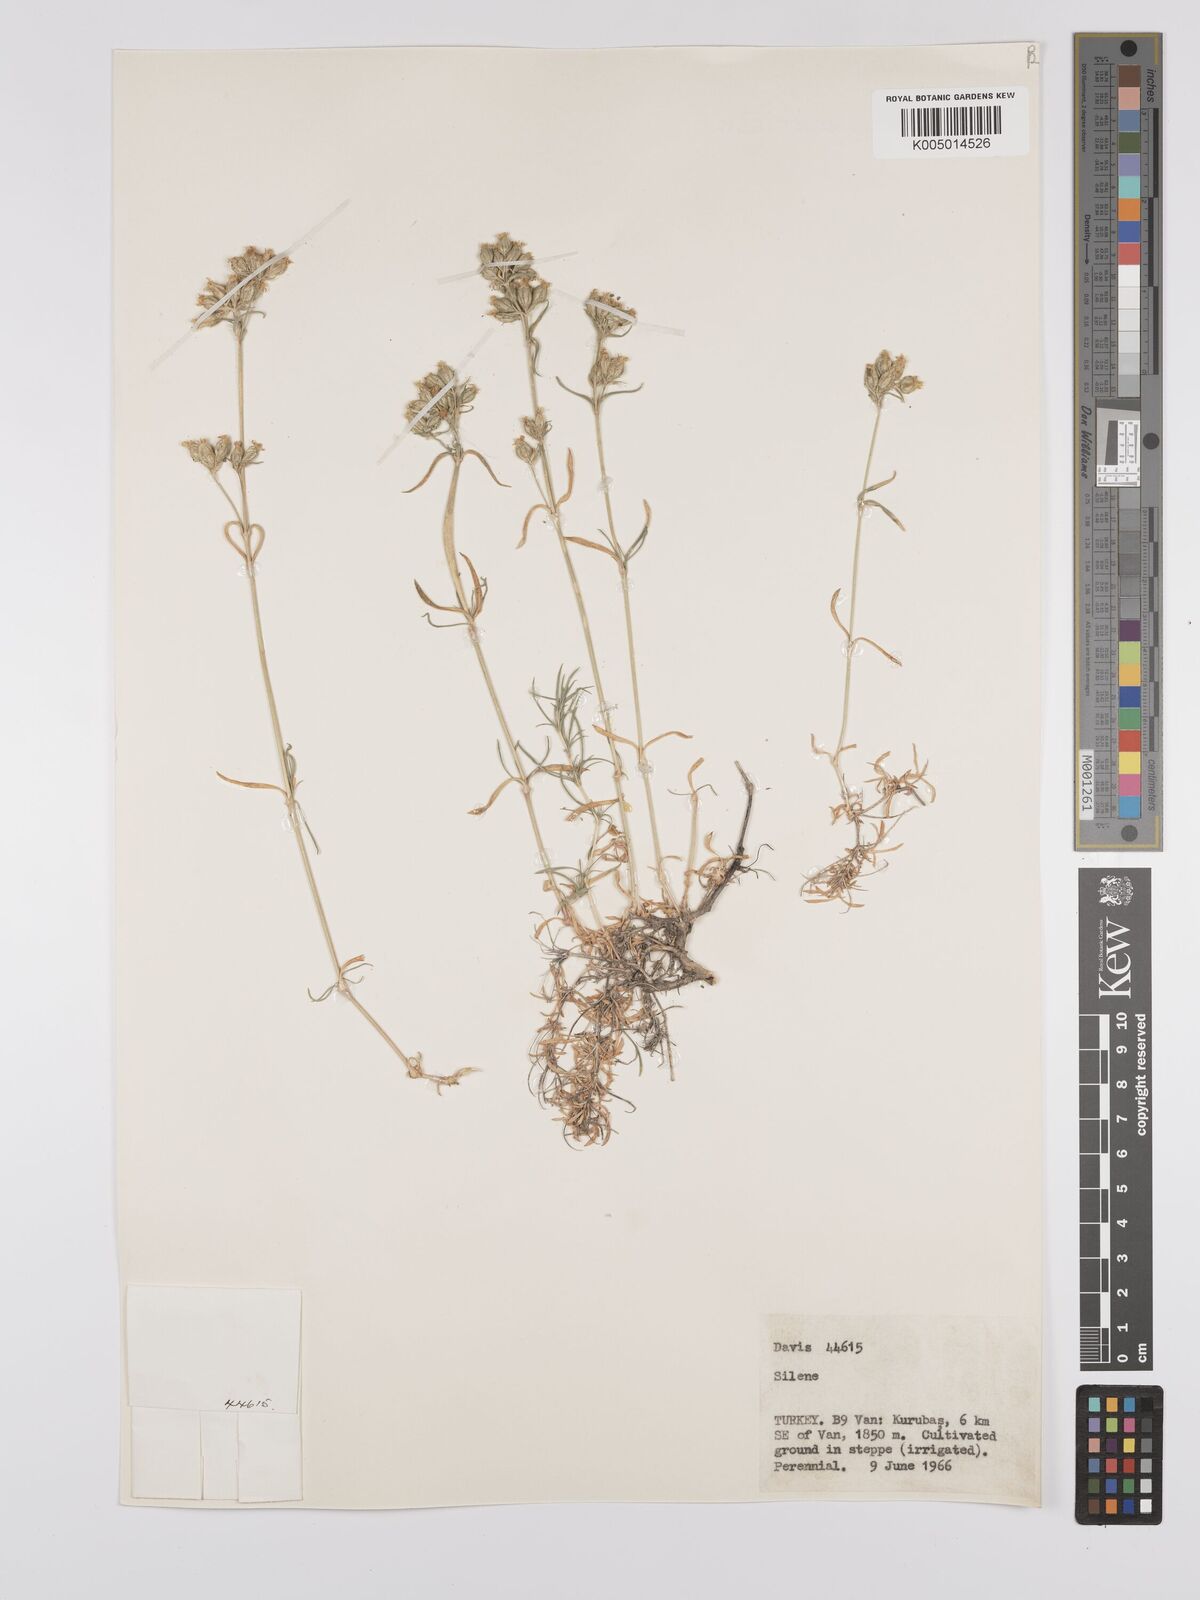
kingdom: Plantae
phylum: Tracheophyta
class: Magnoliopsida
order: Caryophyllales
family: Caryophyllaceae
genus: Silene
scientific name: Silene
